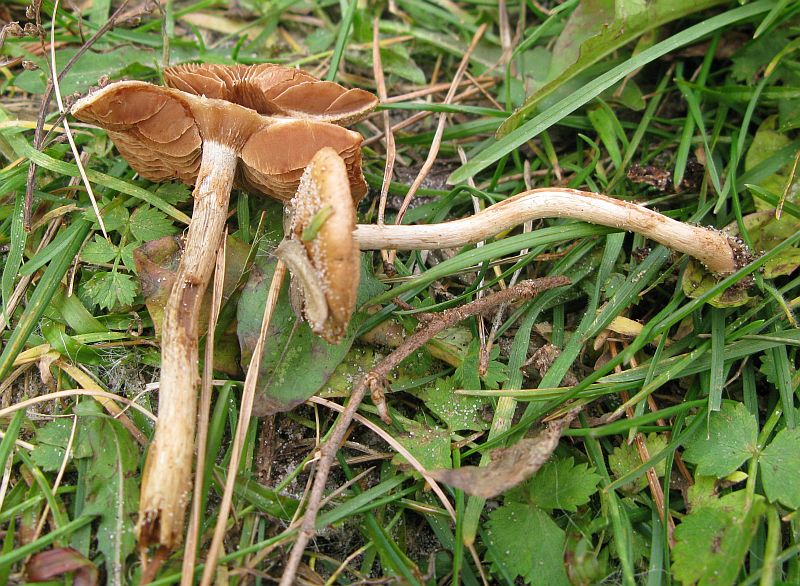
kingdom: Fungi
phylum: Basidiomycota
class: Agaricomycetes
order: Agaricales
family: Hymenogastraceae
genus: Hebeloma
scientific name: Hebeloma mesophaeum
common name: lerbrun tåreblad
